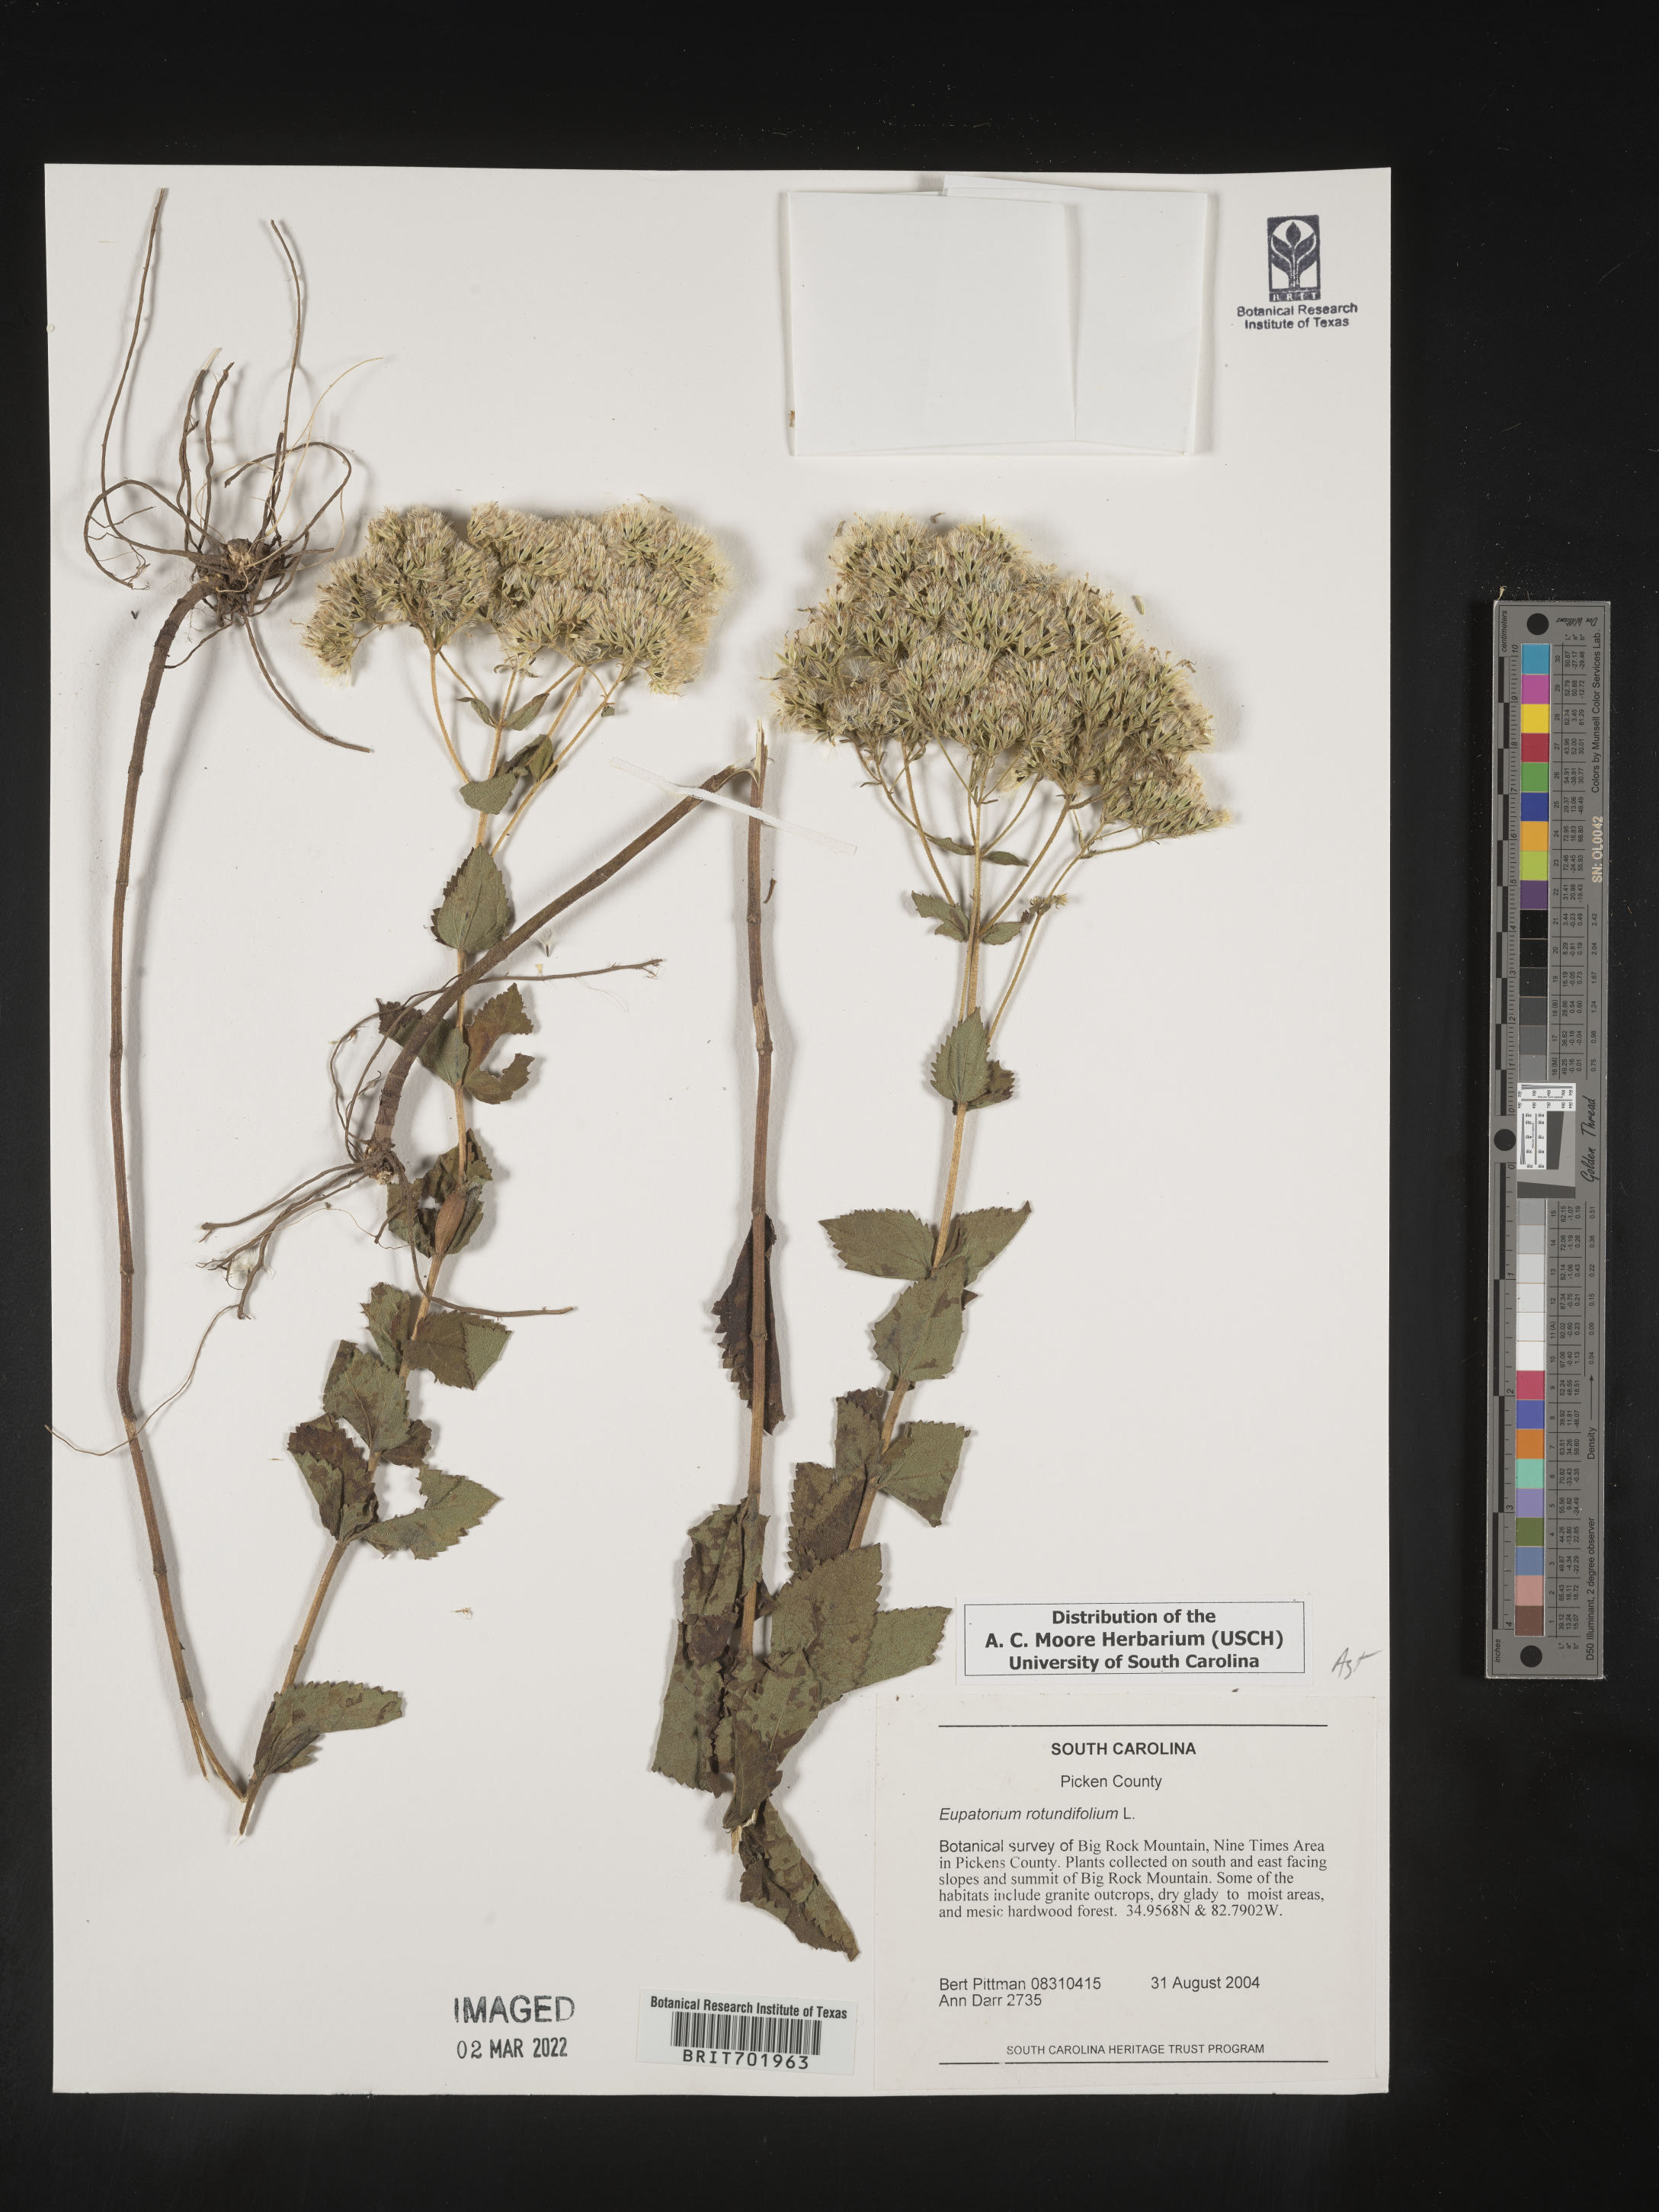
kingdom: Plantae
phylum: Tracheophyta
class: Magnoliopsida
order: Asterales
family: Asteraceae
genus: Eupatorium
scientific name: Eupatorium rotundifolium
